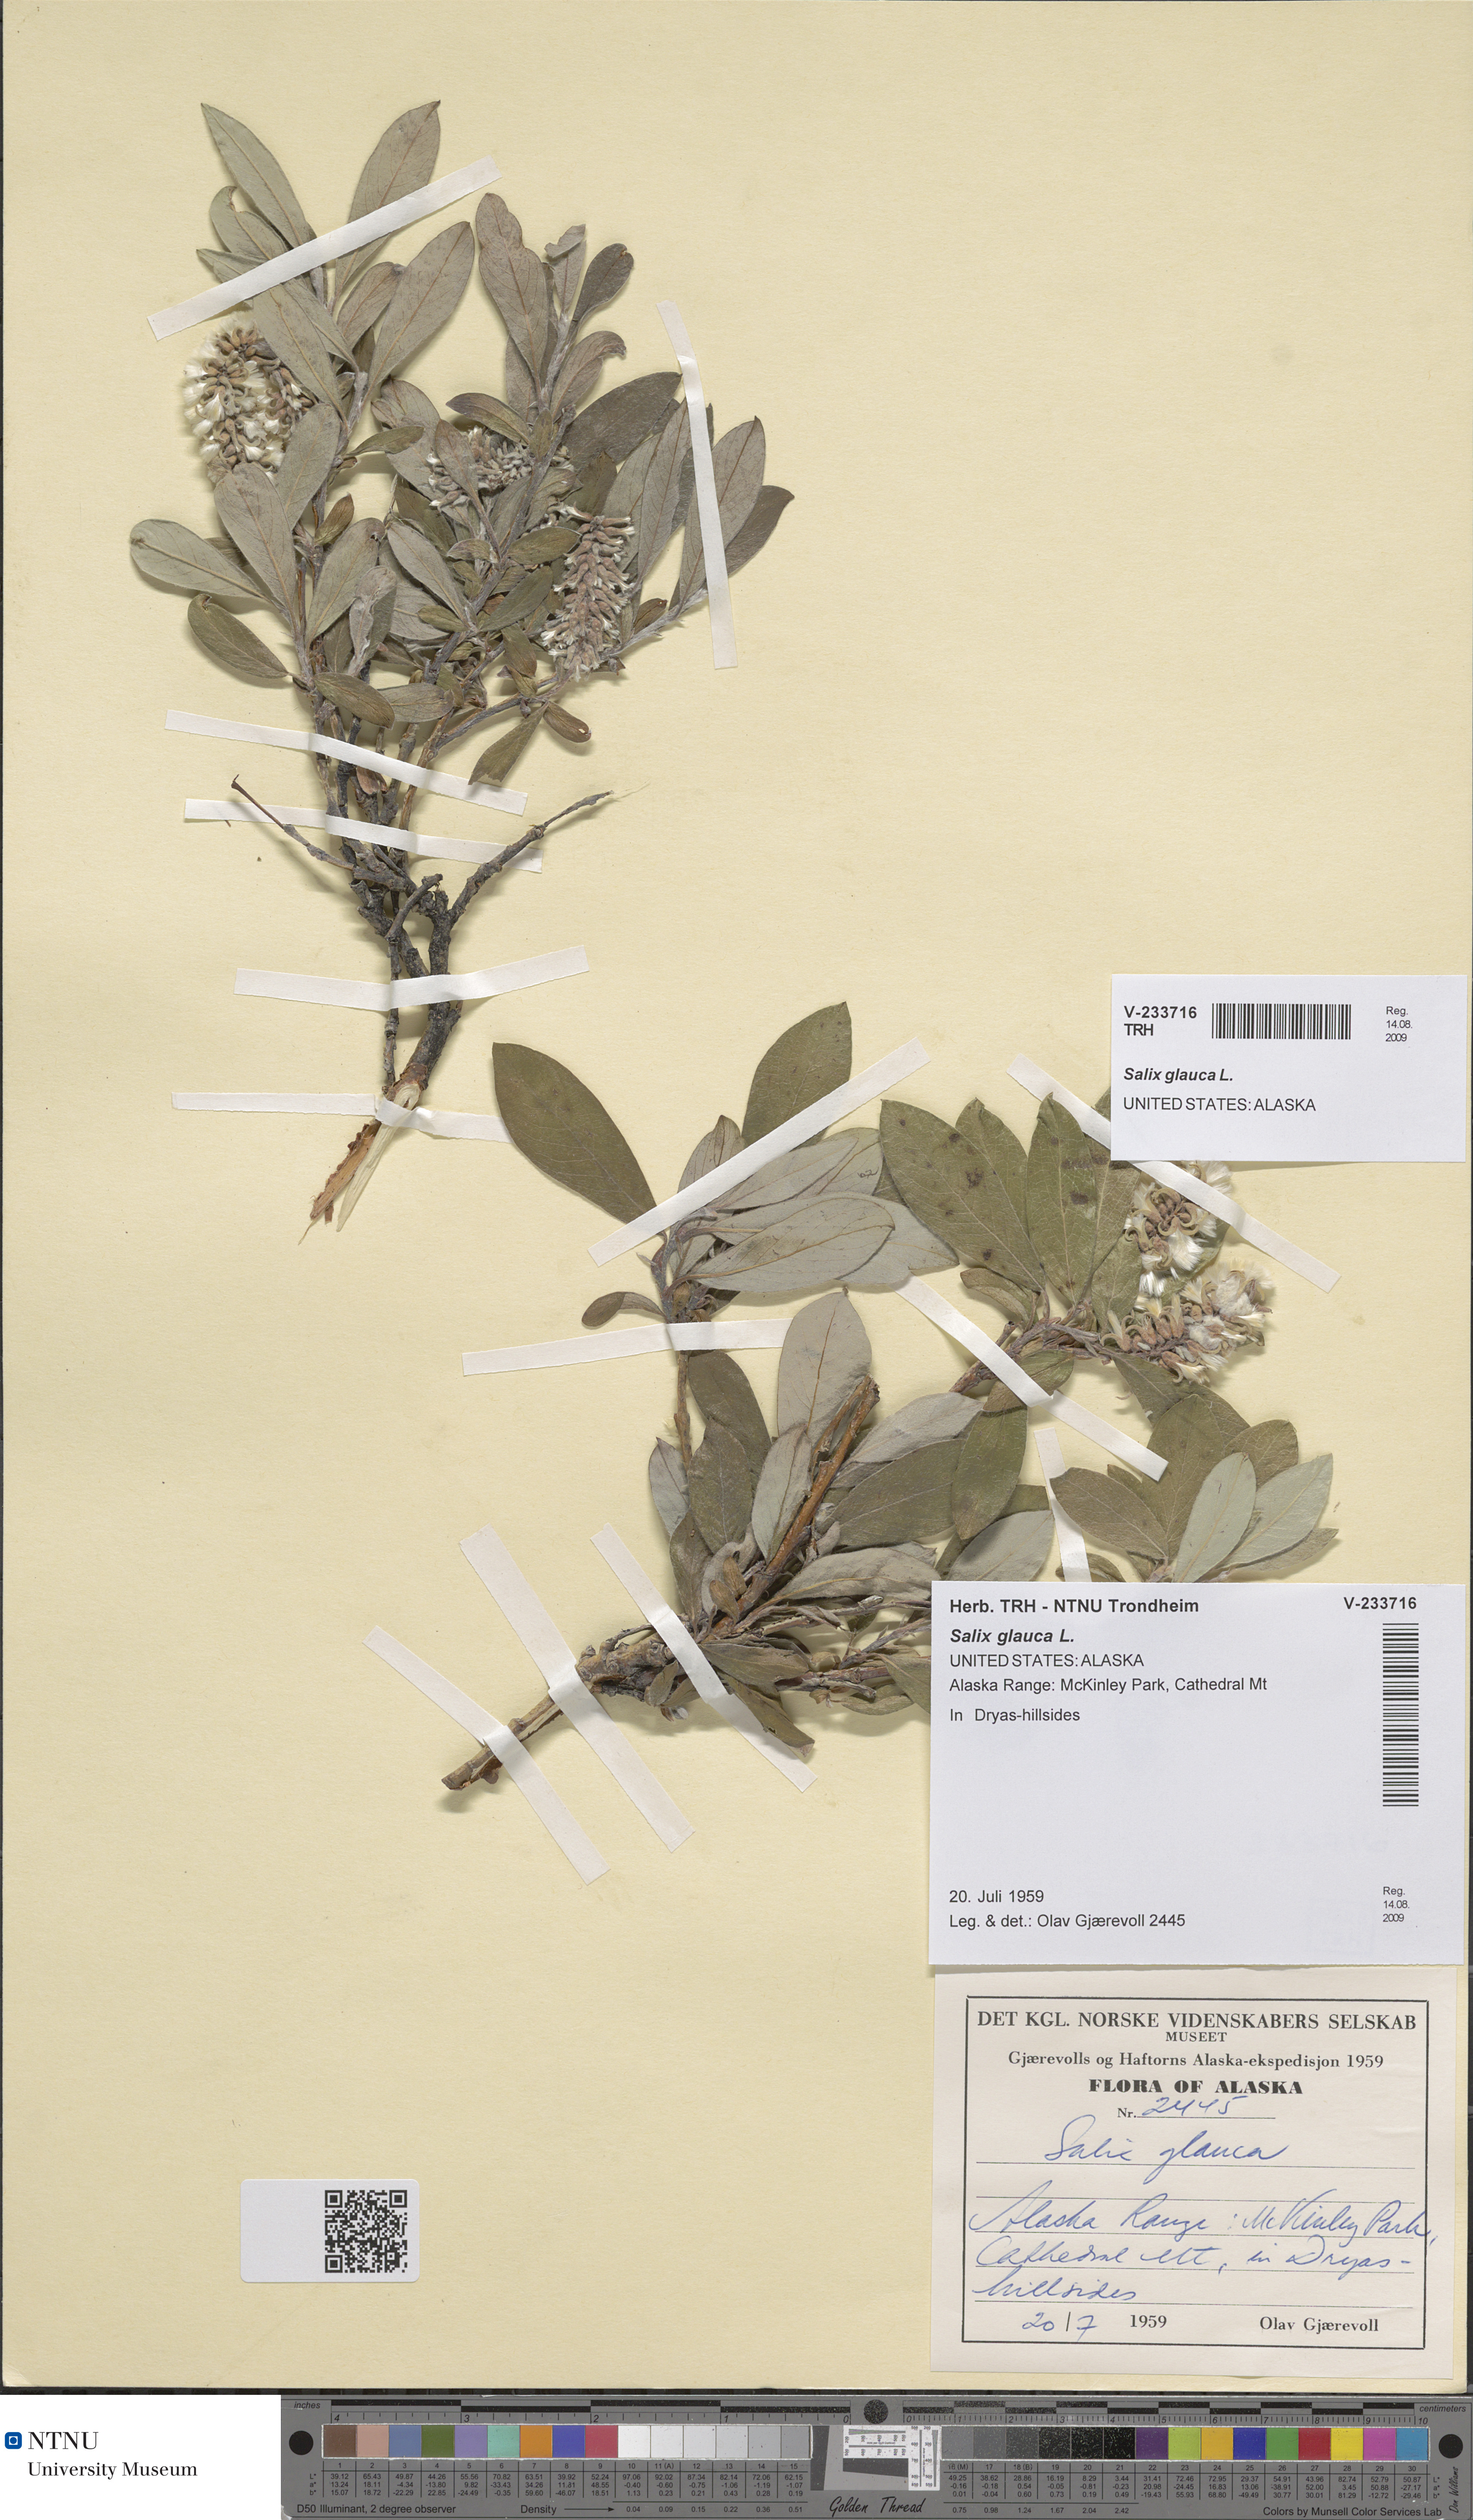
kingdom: Plantae
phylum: Tracheophyta
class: Magnoliopsida
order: Malpighiales
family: Salicaceae
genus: Salix
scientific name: Salix glauca
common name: Glaucous willow
